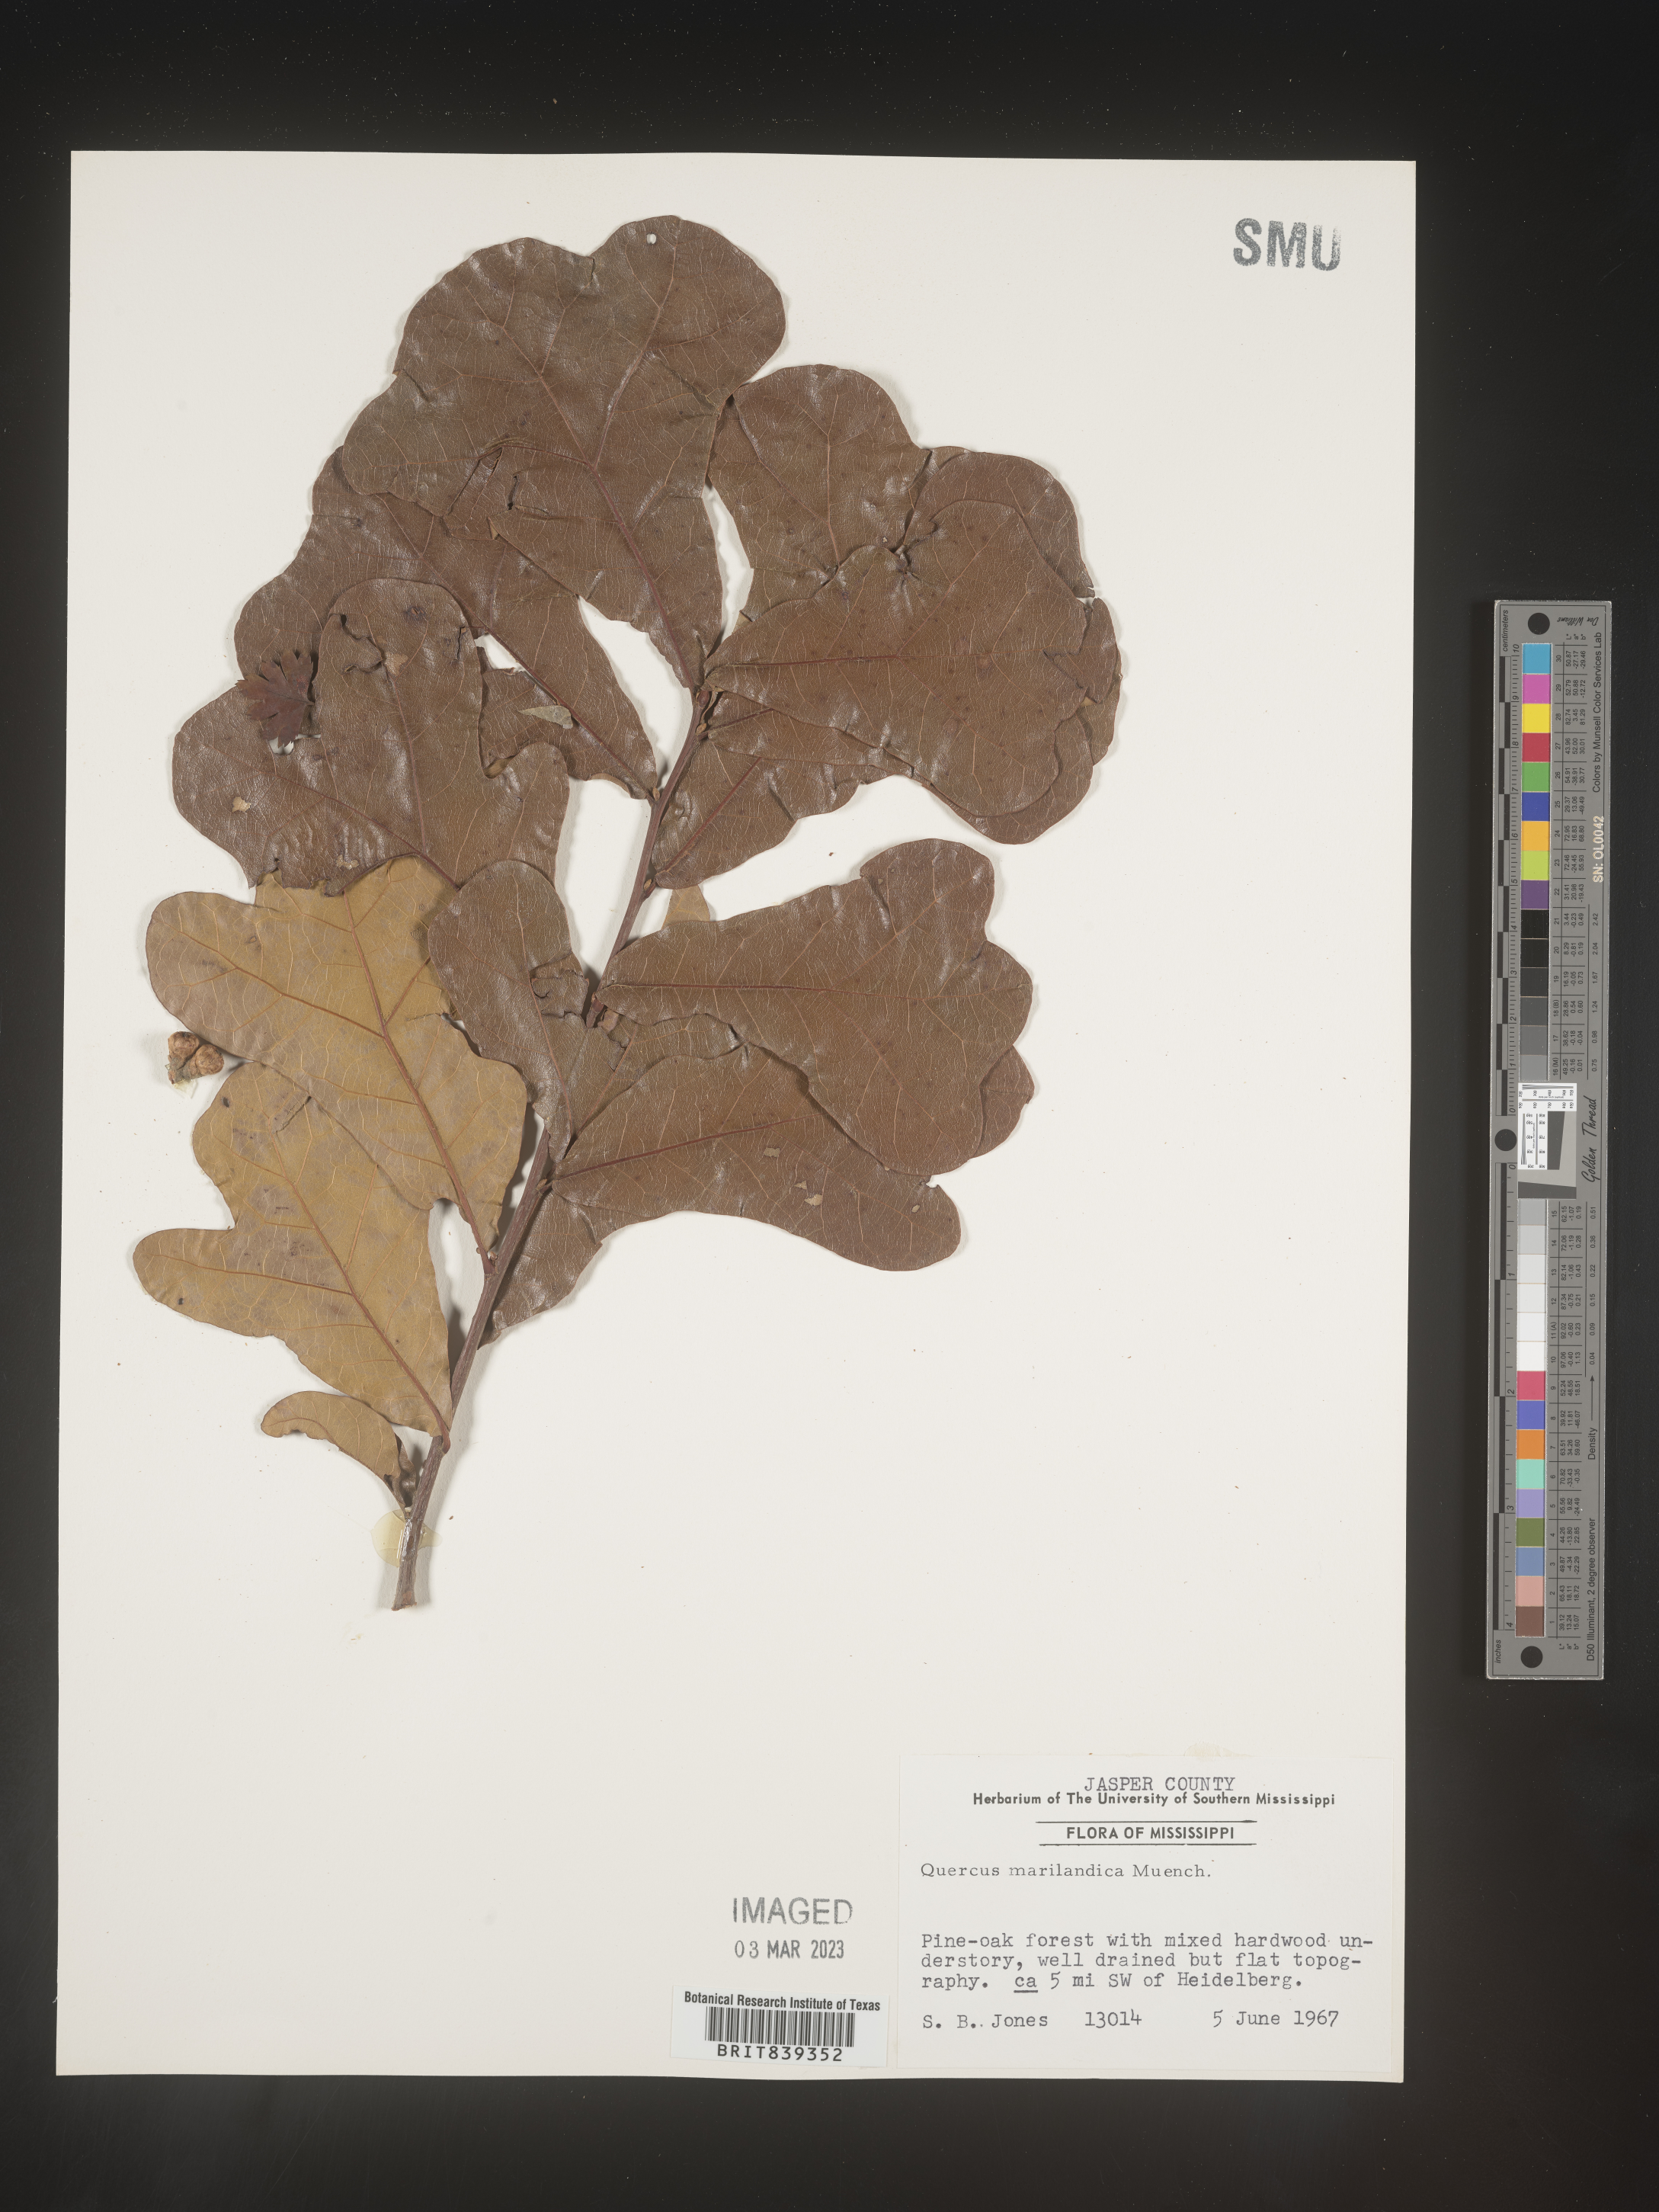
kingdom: Plantae
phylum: Tracheophyta
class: Magnoliopsida
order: Fagales
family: Fagaceae
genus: Quercus
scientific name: Quercus marilandica
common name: Blackjack oak
